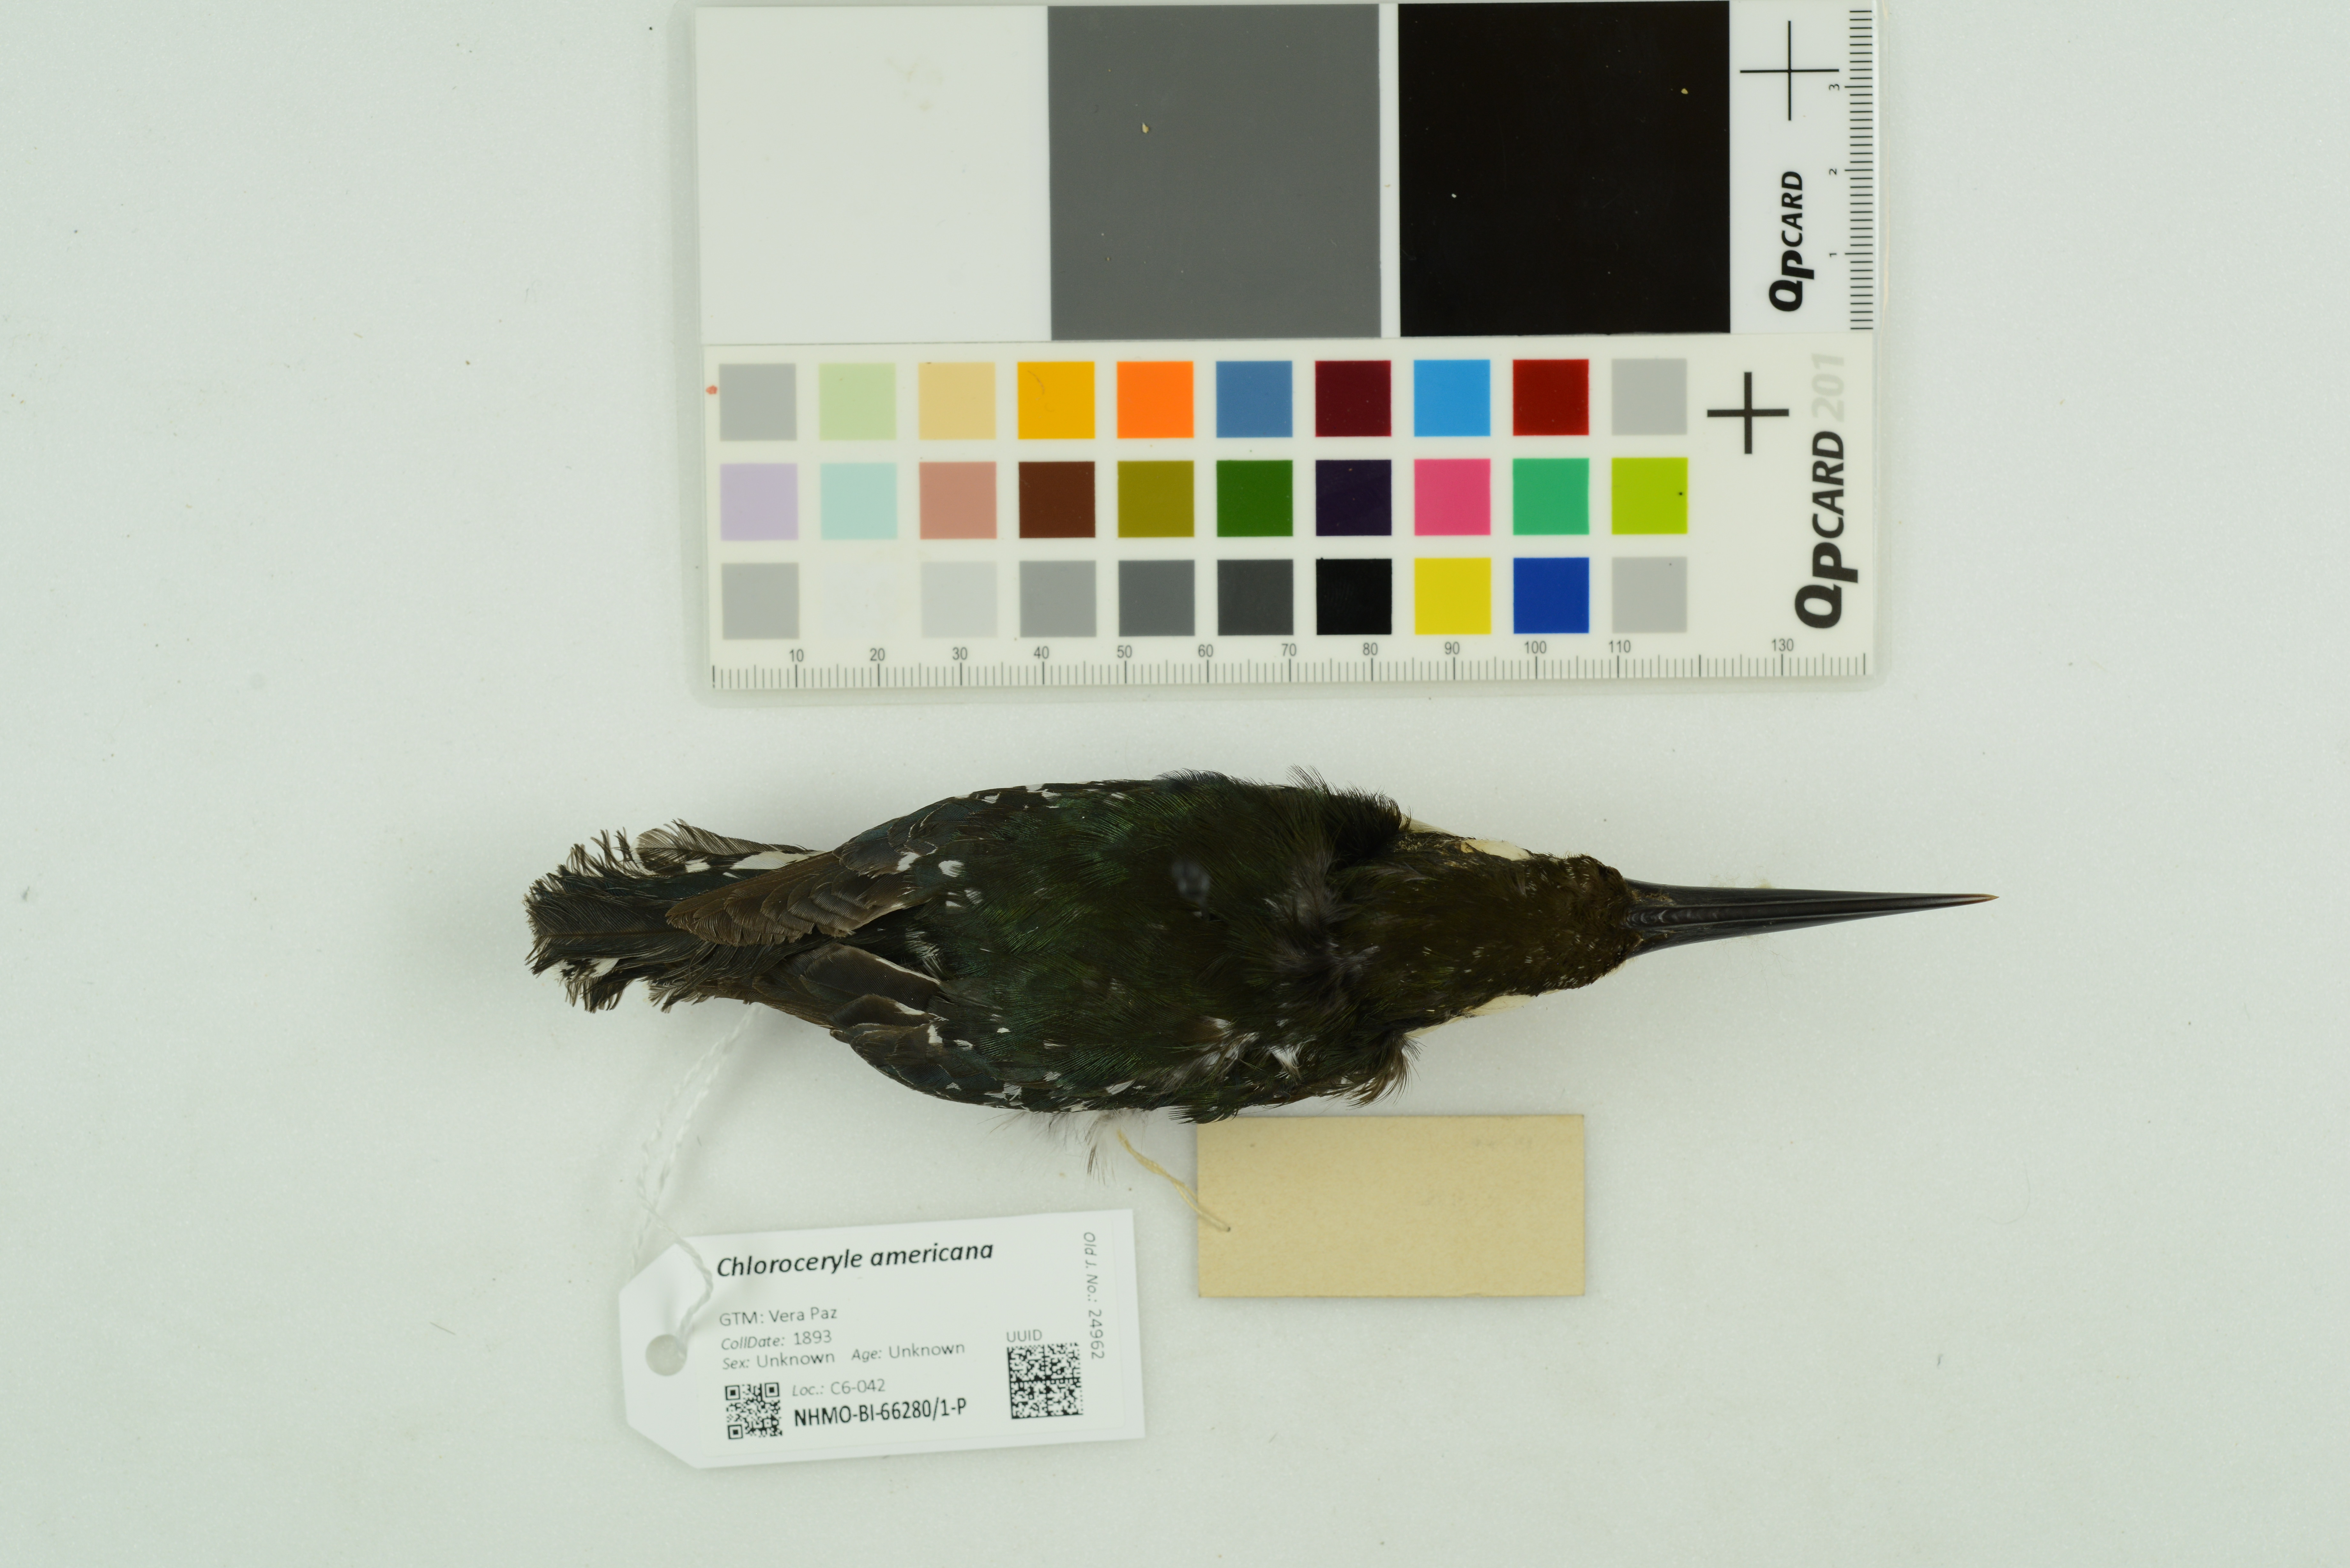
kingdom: Animalia
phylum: Chordata
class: Aves
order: Coraciiformes
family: Alcedinidae
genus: Chloroceryle
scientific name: Chloroceryle americana
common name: Green kingfisher
